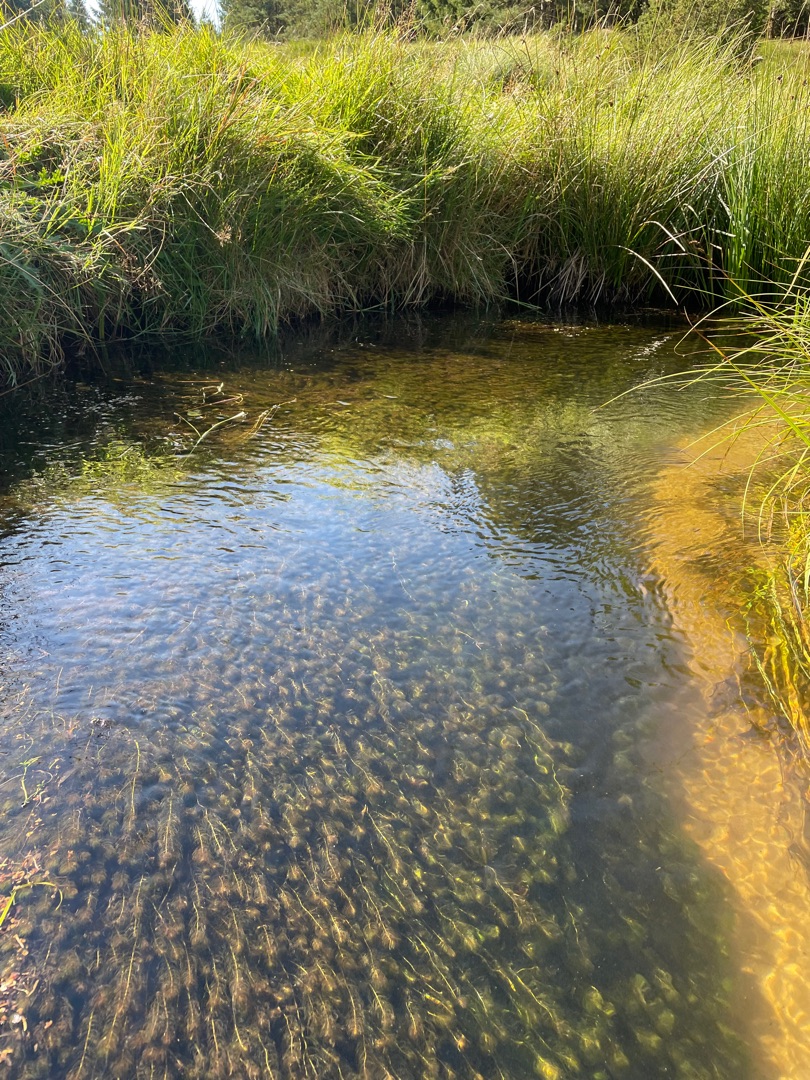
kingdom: Plantae
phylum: Tracheophyta
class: Magnoliopsida
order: Saxifragales
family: Haloragaceae
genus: Myriophyllum
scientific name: Myriophyllum
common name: Tusindbladslægten
